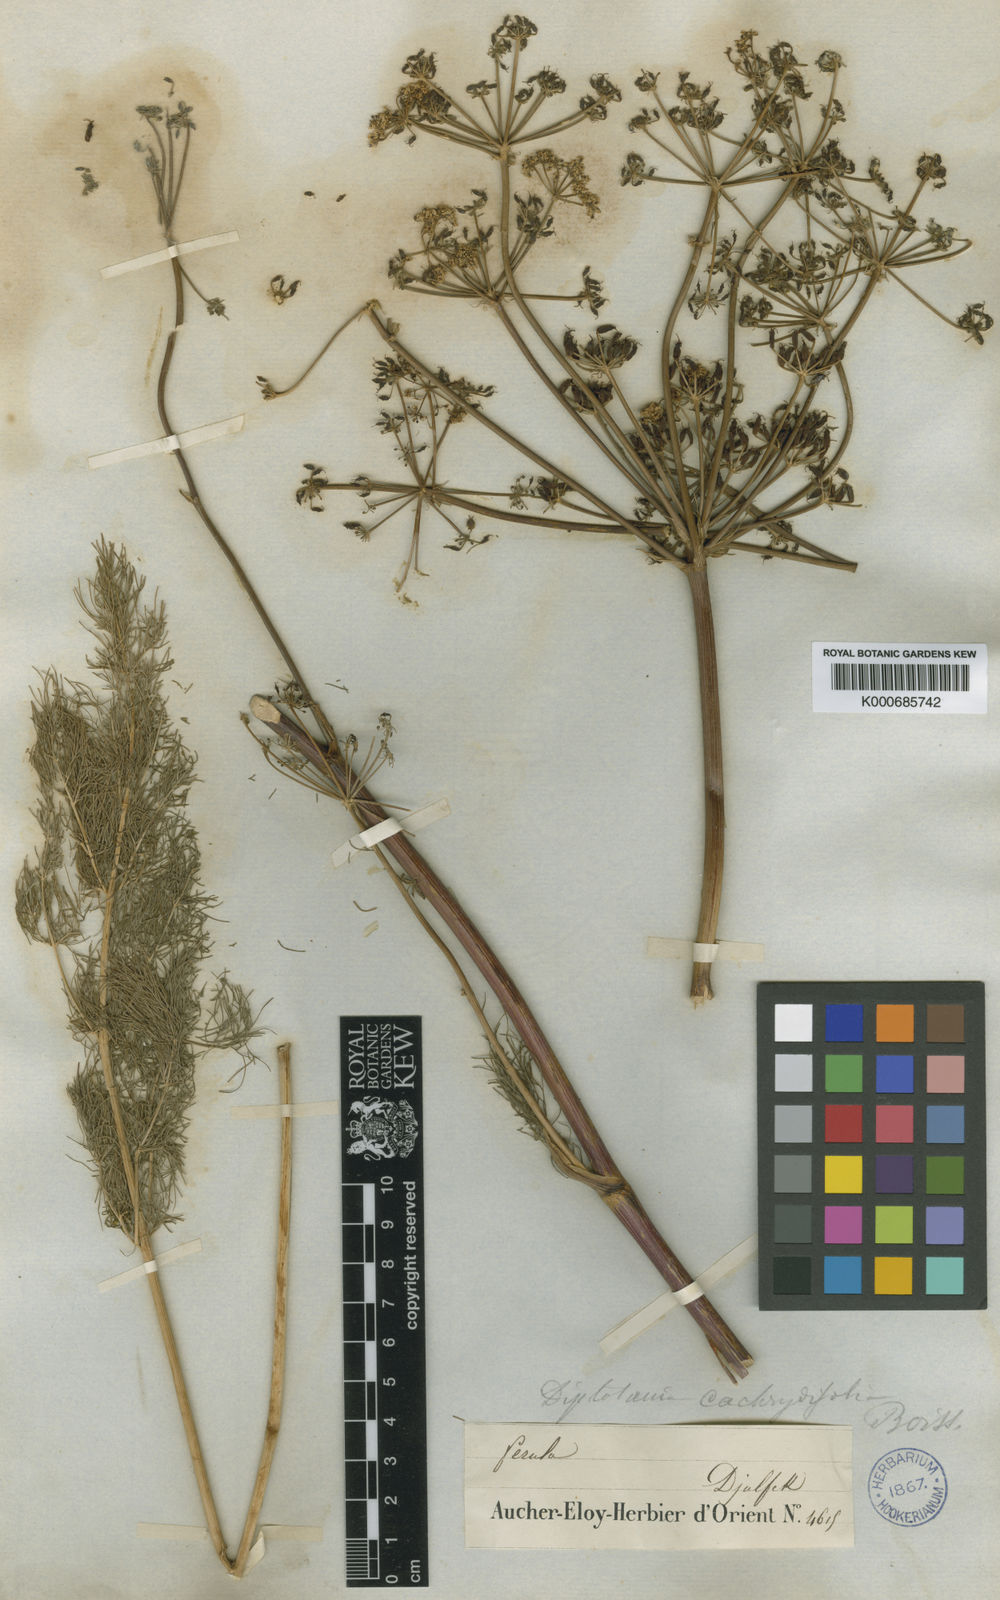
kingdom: Plantae
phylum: Tracheophyta
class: Magnoliopsida
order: Apiales
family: Apiaceae
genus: Diplotaenia
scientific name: Diplotaenia cachrydifolia
